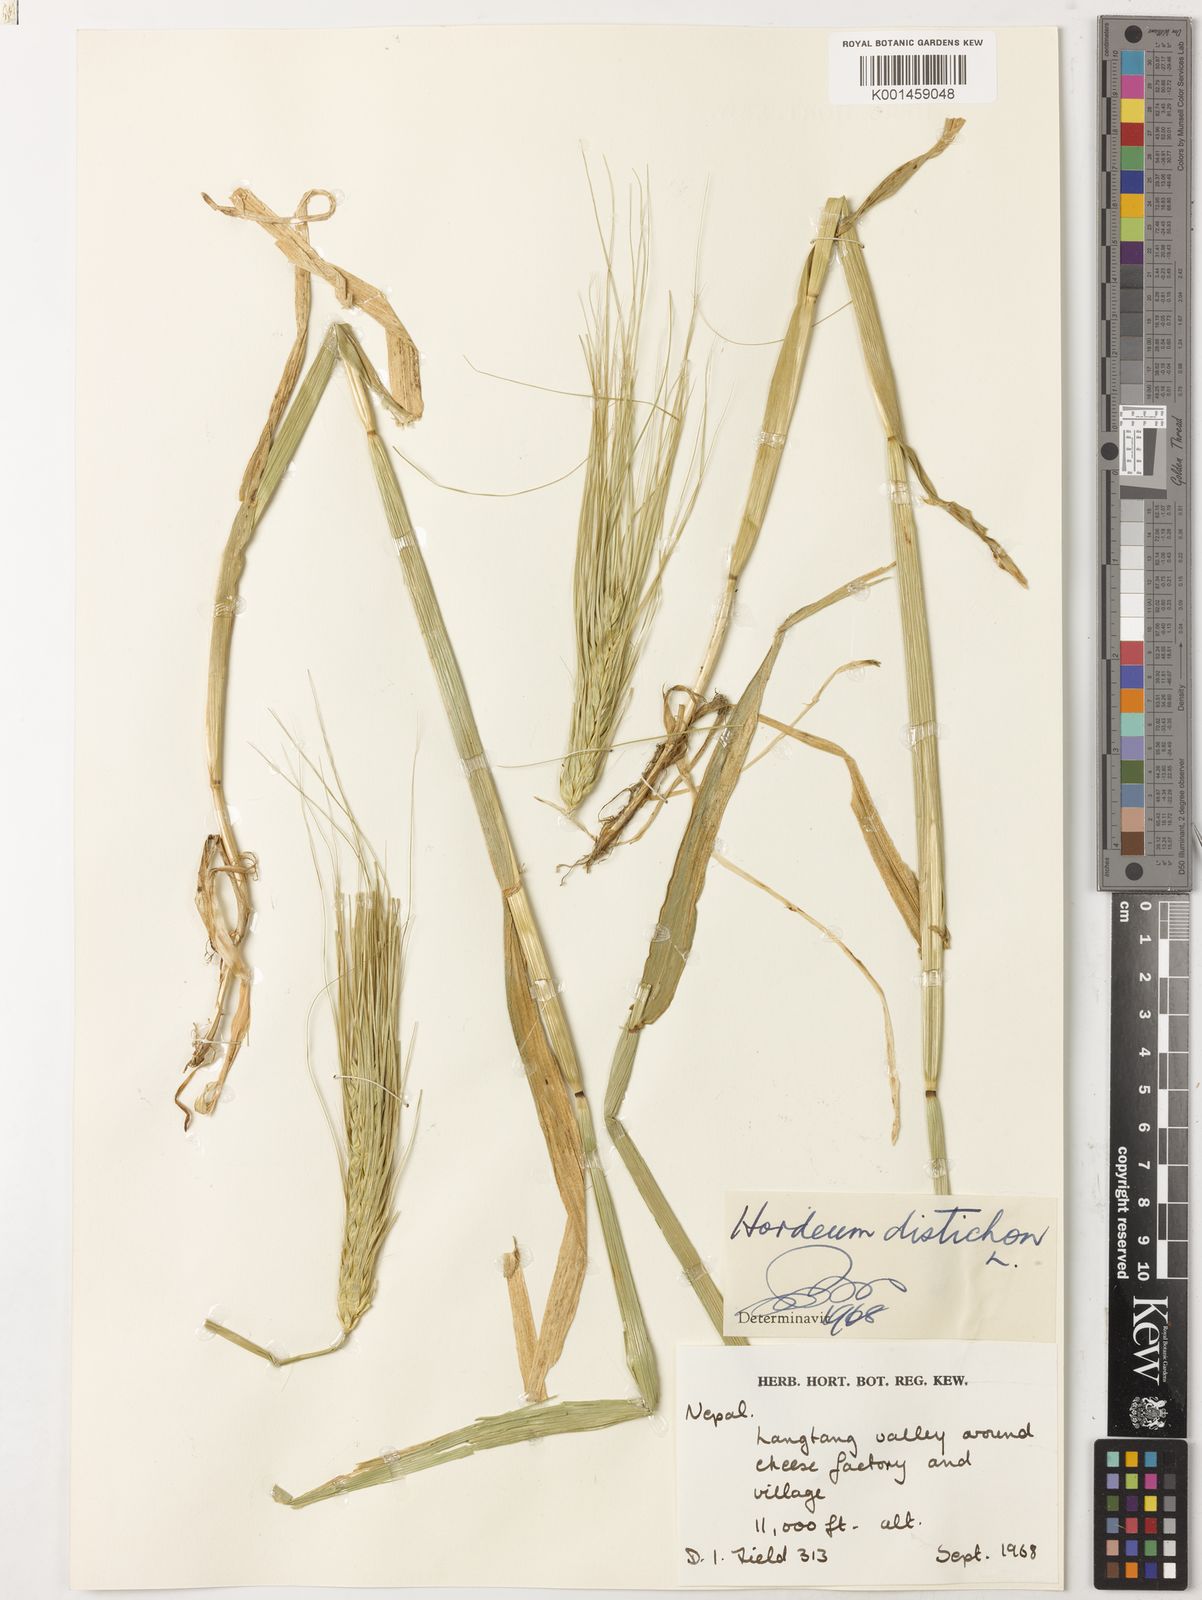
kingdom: Plantae
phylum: Tracheophyta
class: Liliopsida
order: Poales
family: Poaceae
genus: Hordeum
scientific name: Hordeum vulgare
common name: Common barley
